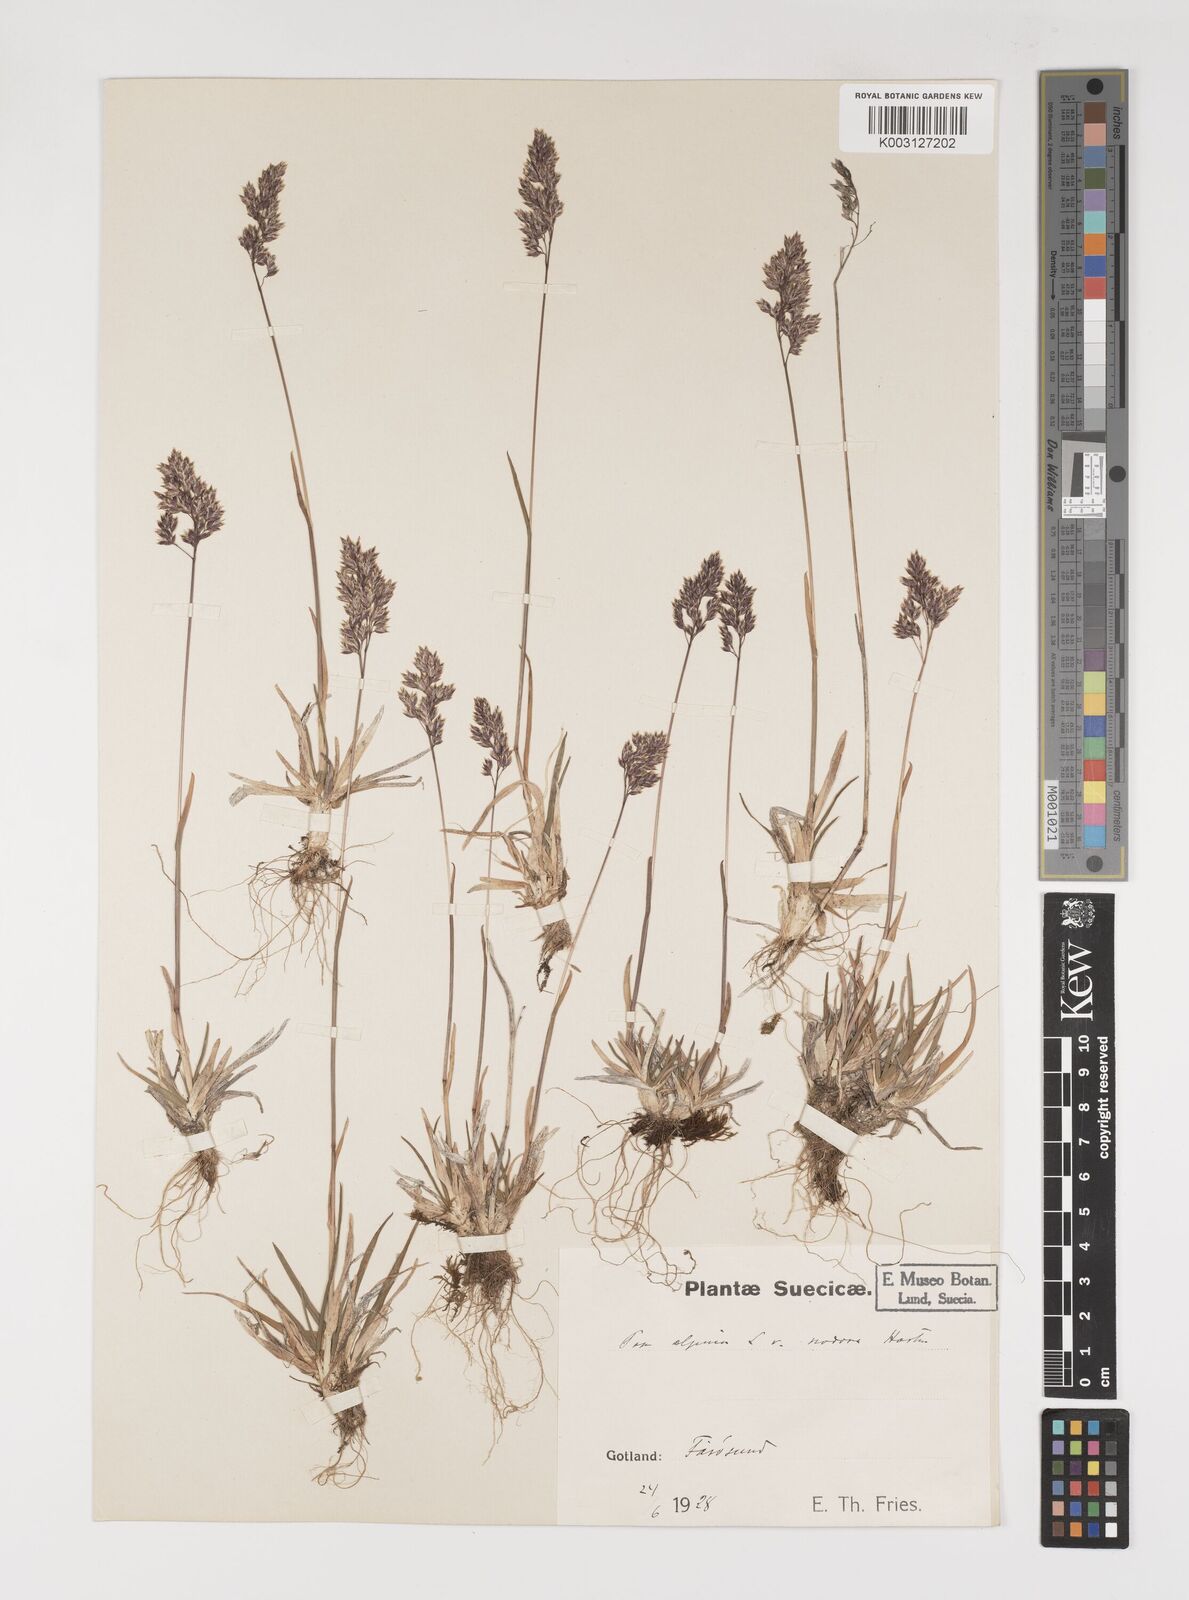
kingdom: Plantae
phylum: Tracheophyta
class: Liliopsida
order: Poales
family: Poaceae
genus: Poa
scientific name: Poa alpina
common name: Alpine bluegrass
